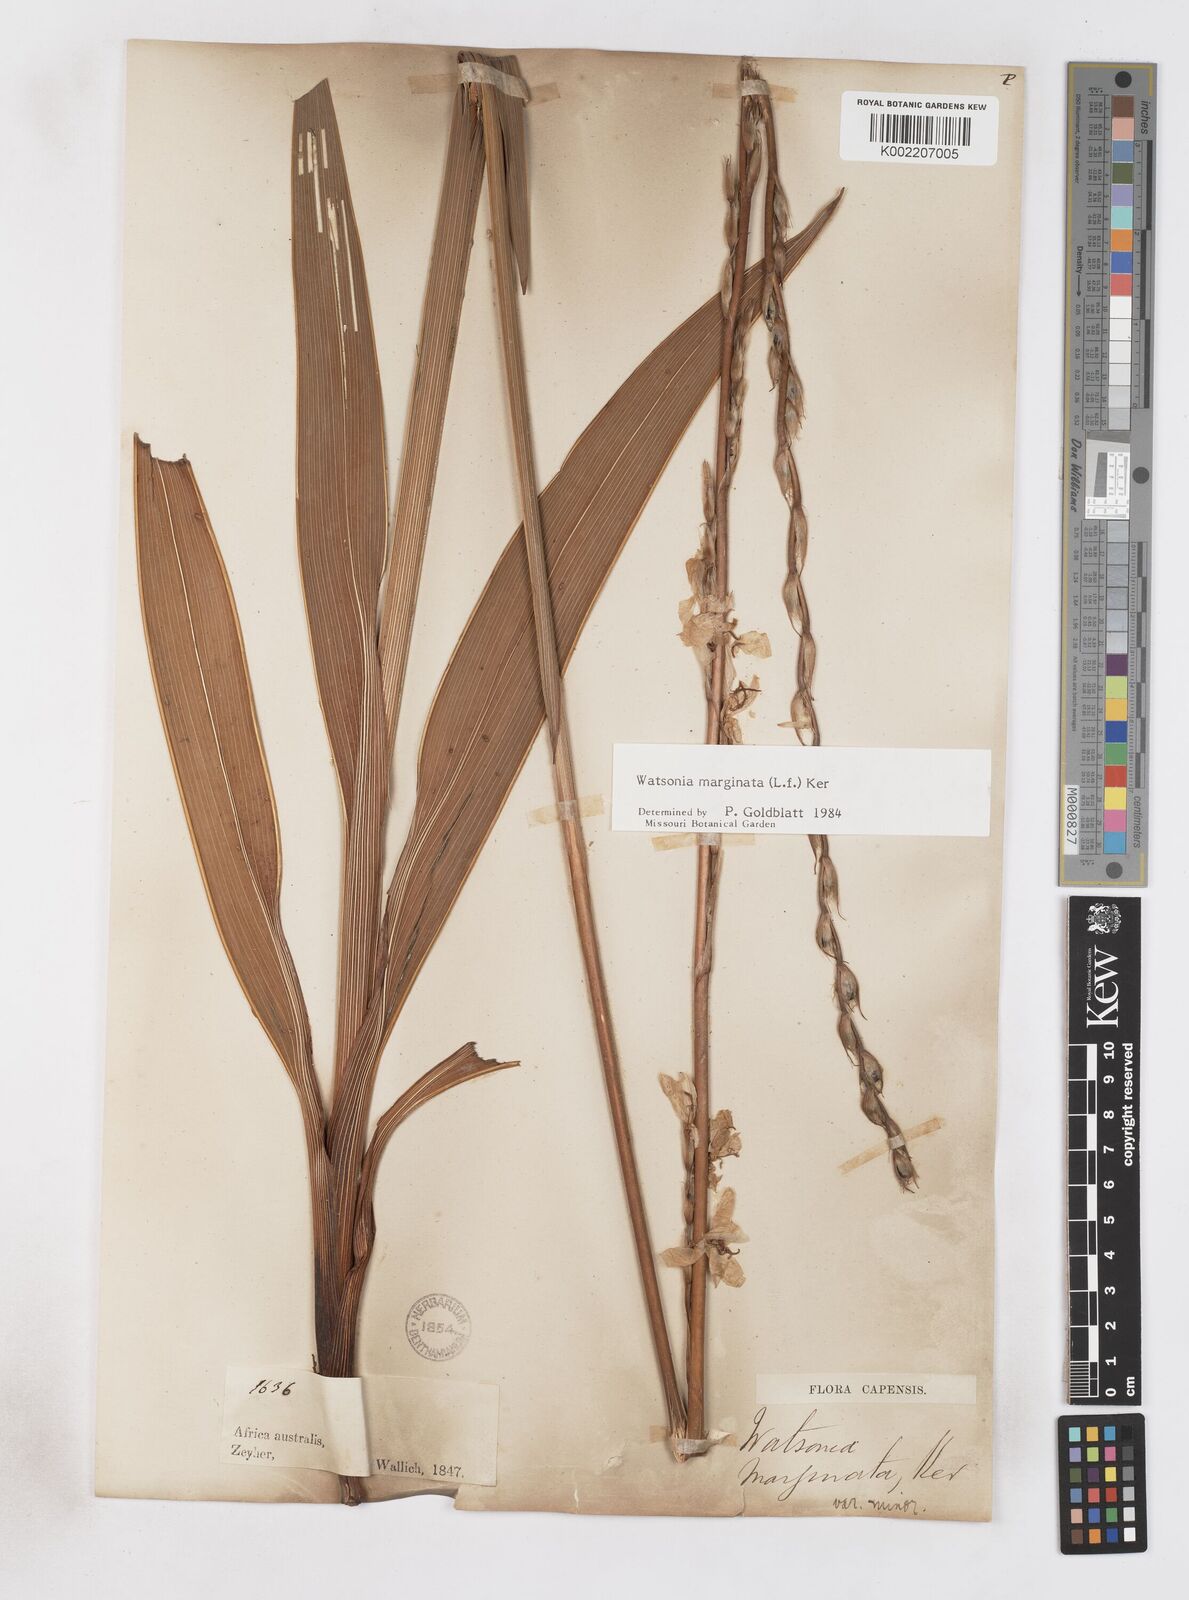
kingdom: Plantae
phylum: Tracheophyta
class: Liliopsida
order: Asparagales
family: Iridaceae
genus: Watsonia
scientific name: Watsonia marginata
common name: Fragrant bugle-lily
